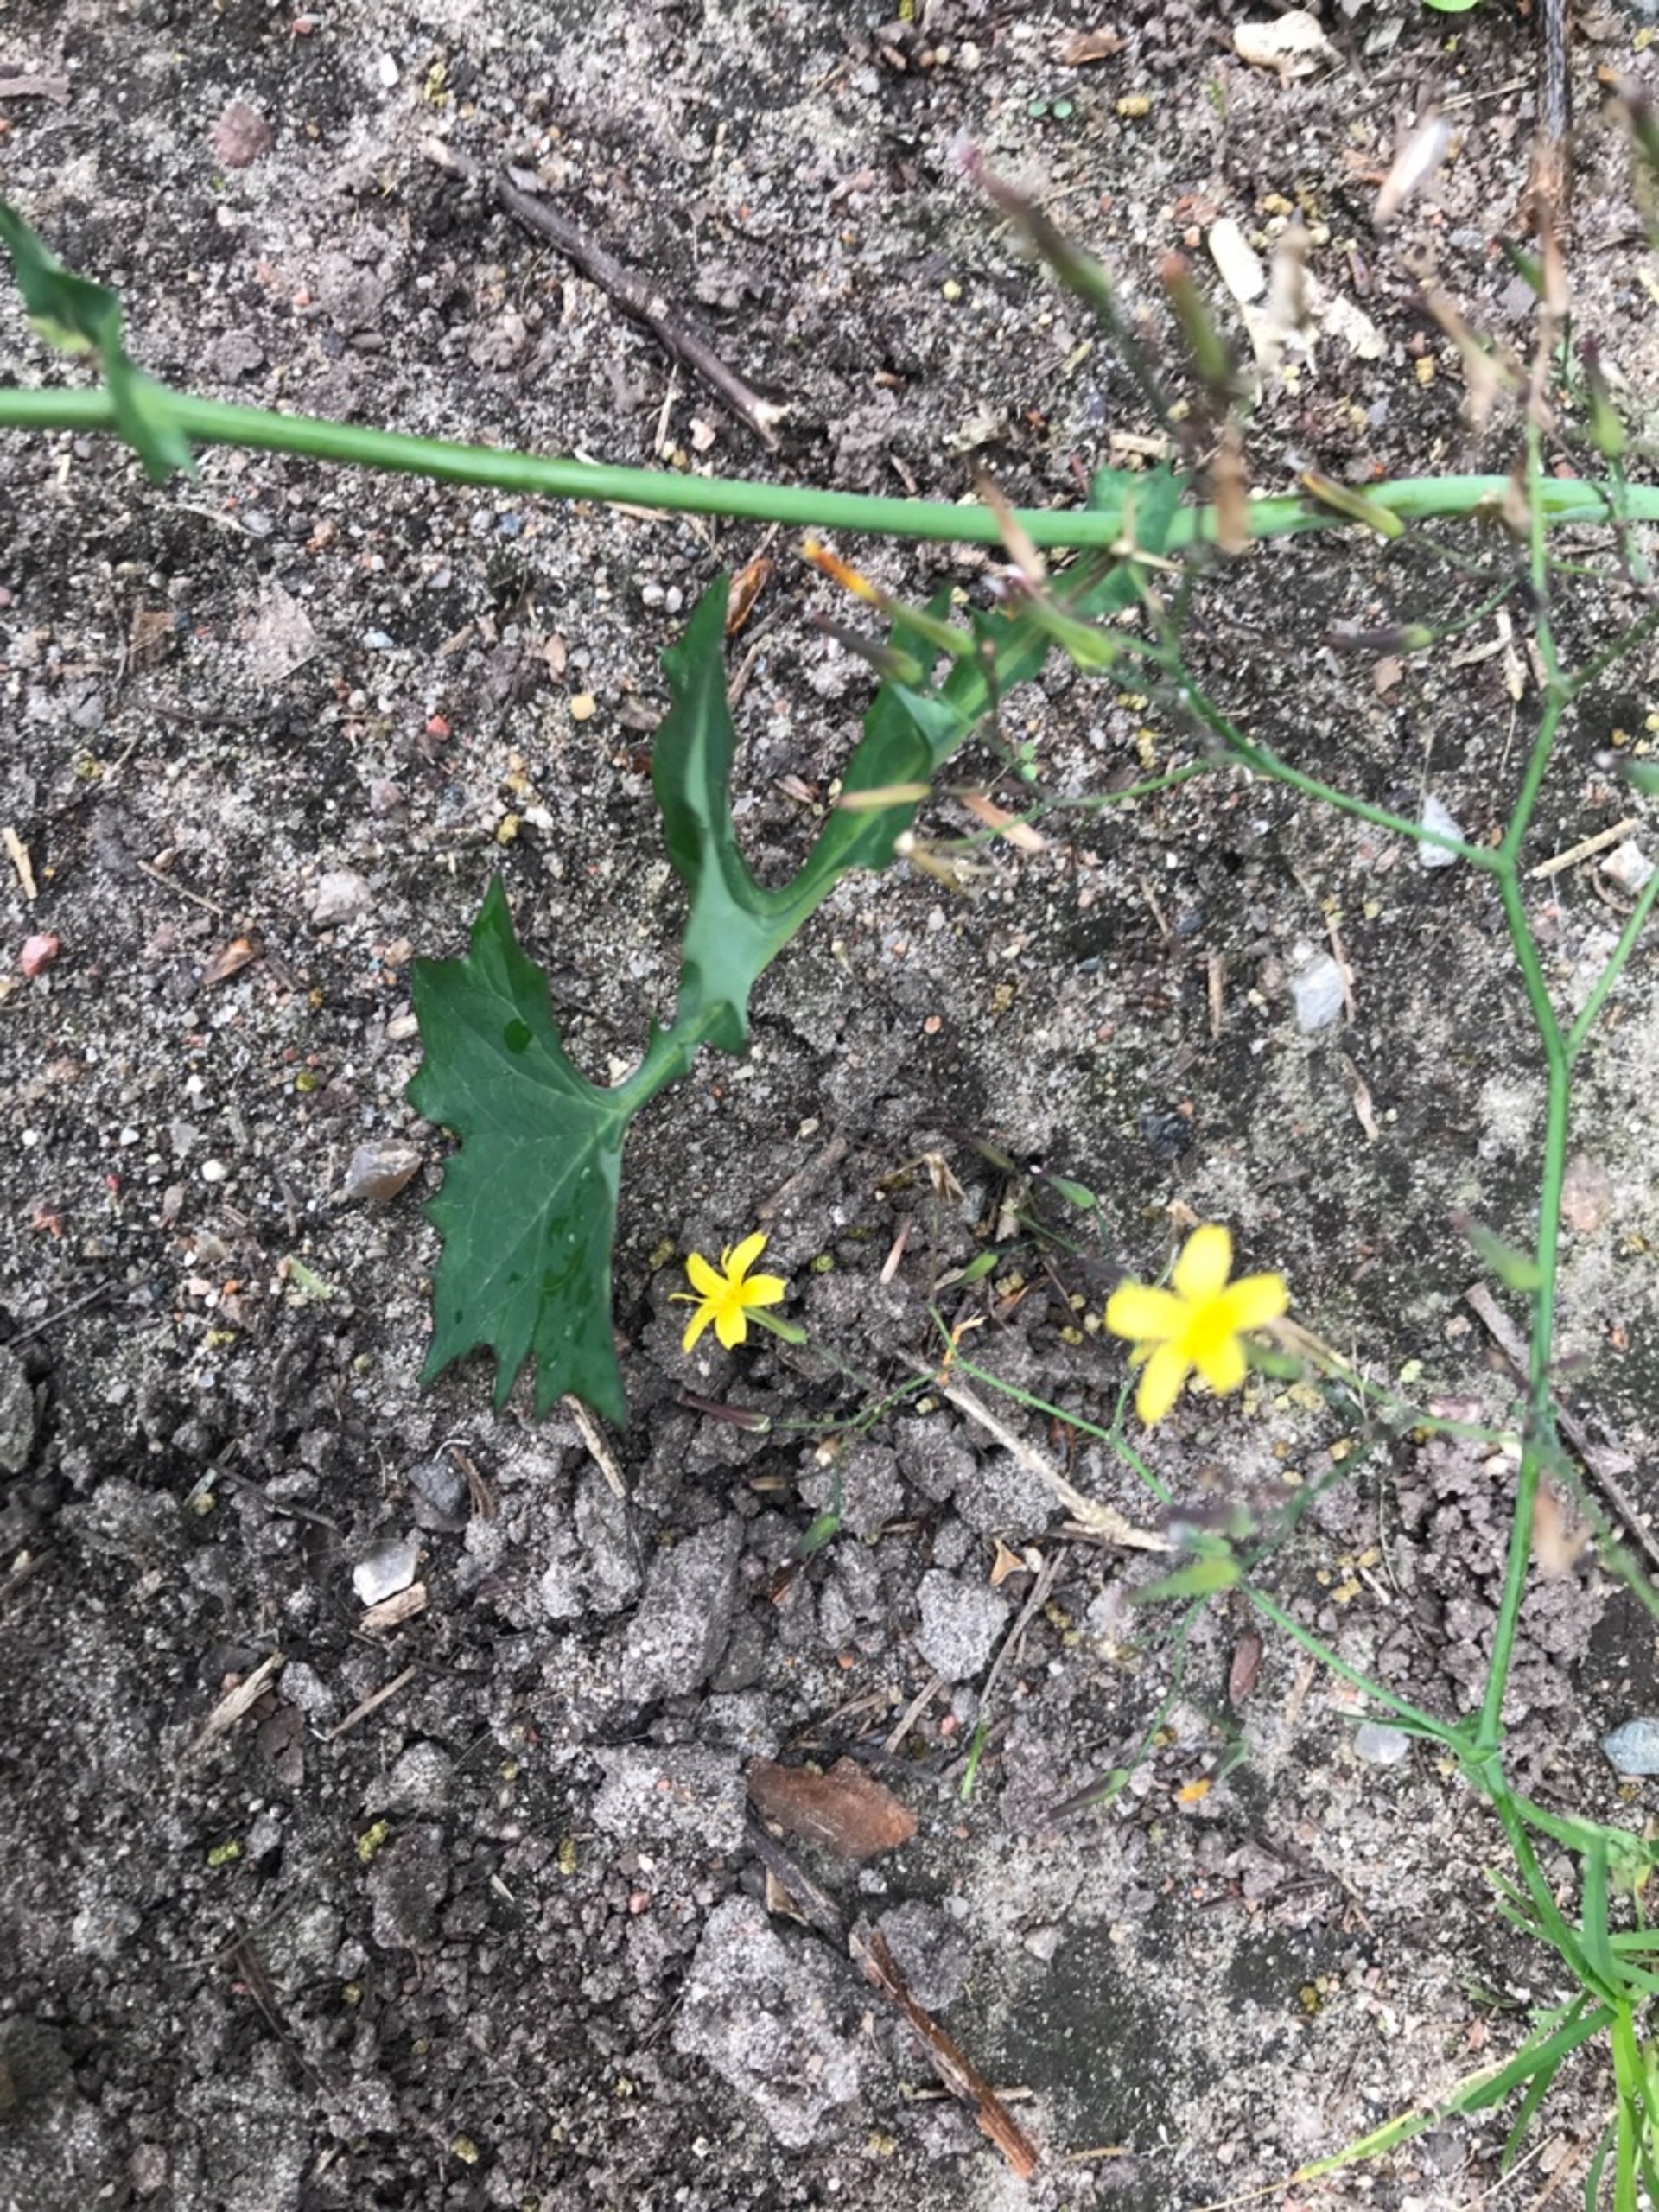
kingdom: Plantae
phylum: Tracheophyta
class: Magnoliopsida
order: Asterales
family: Asteraceae
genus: Mycelis
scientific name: Mycelis muralis
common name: Skov-salat
